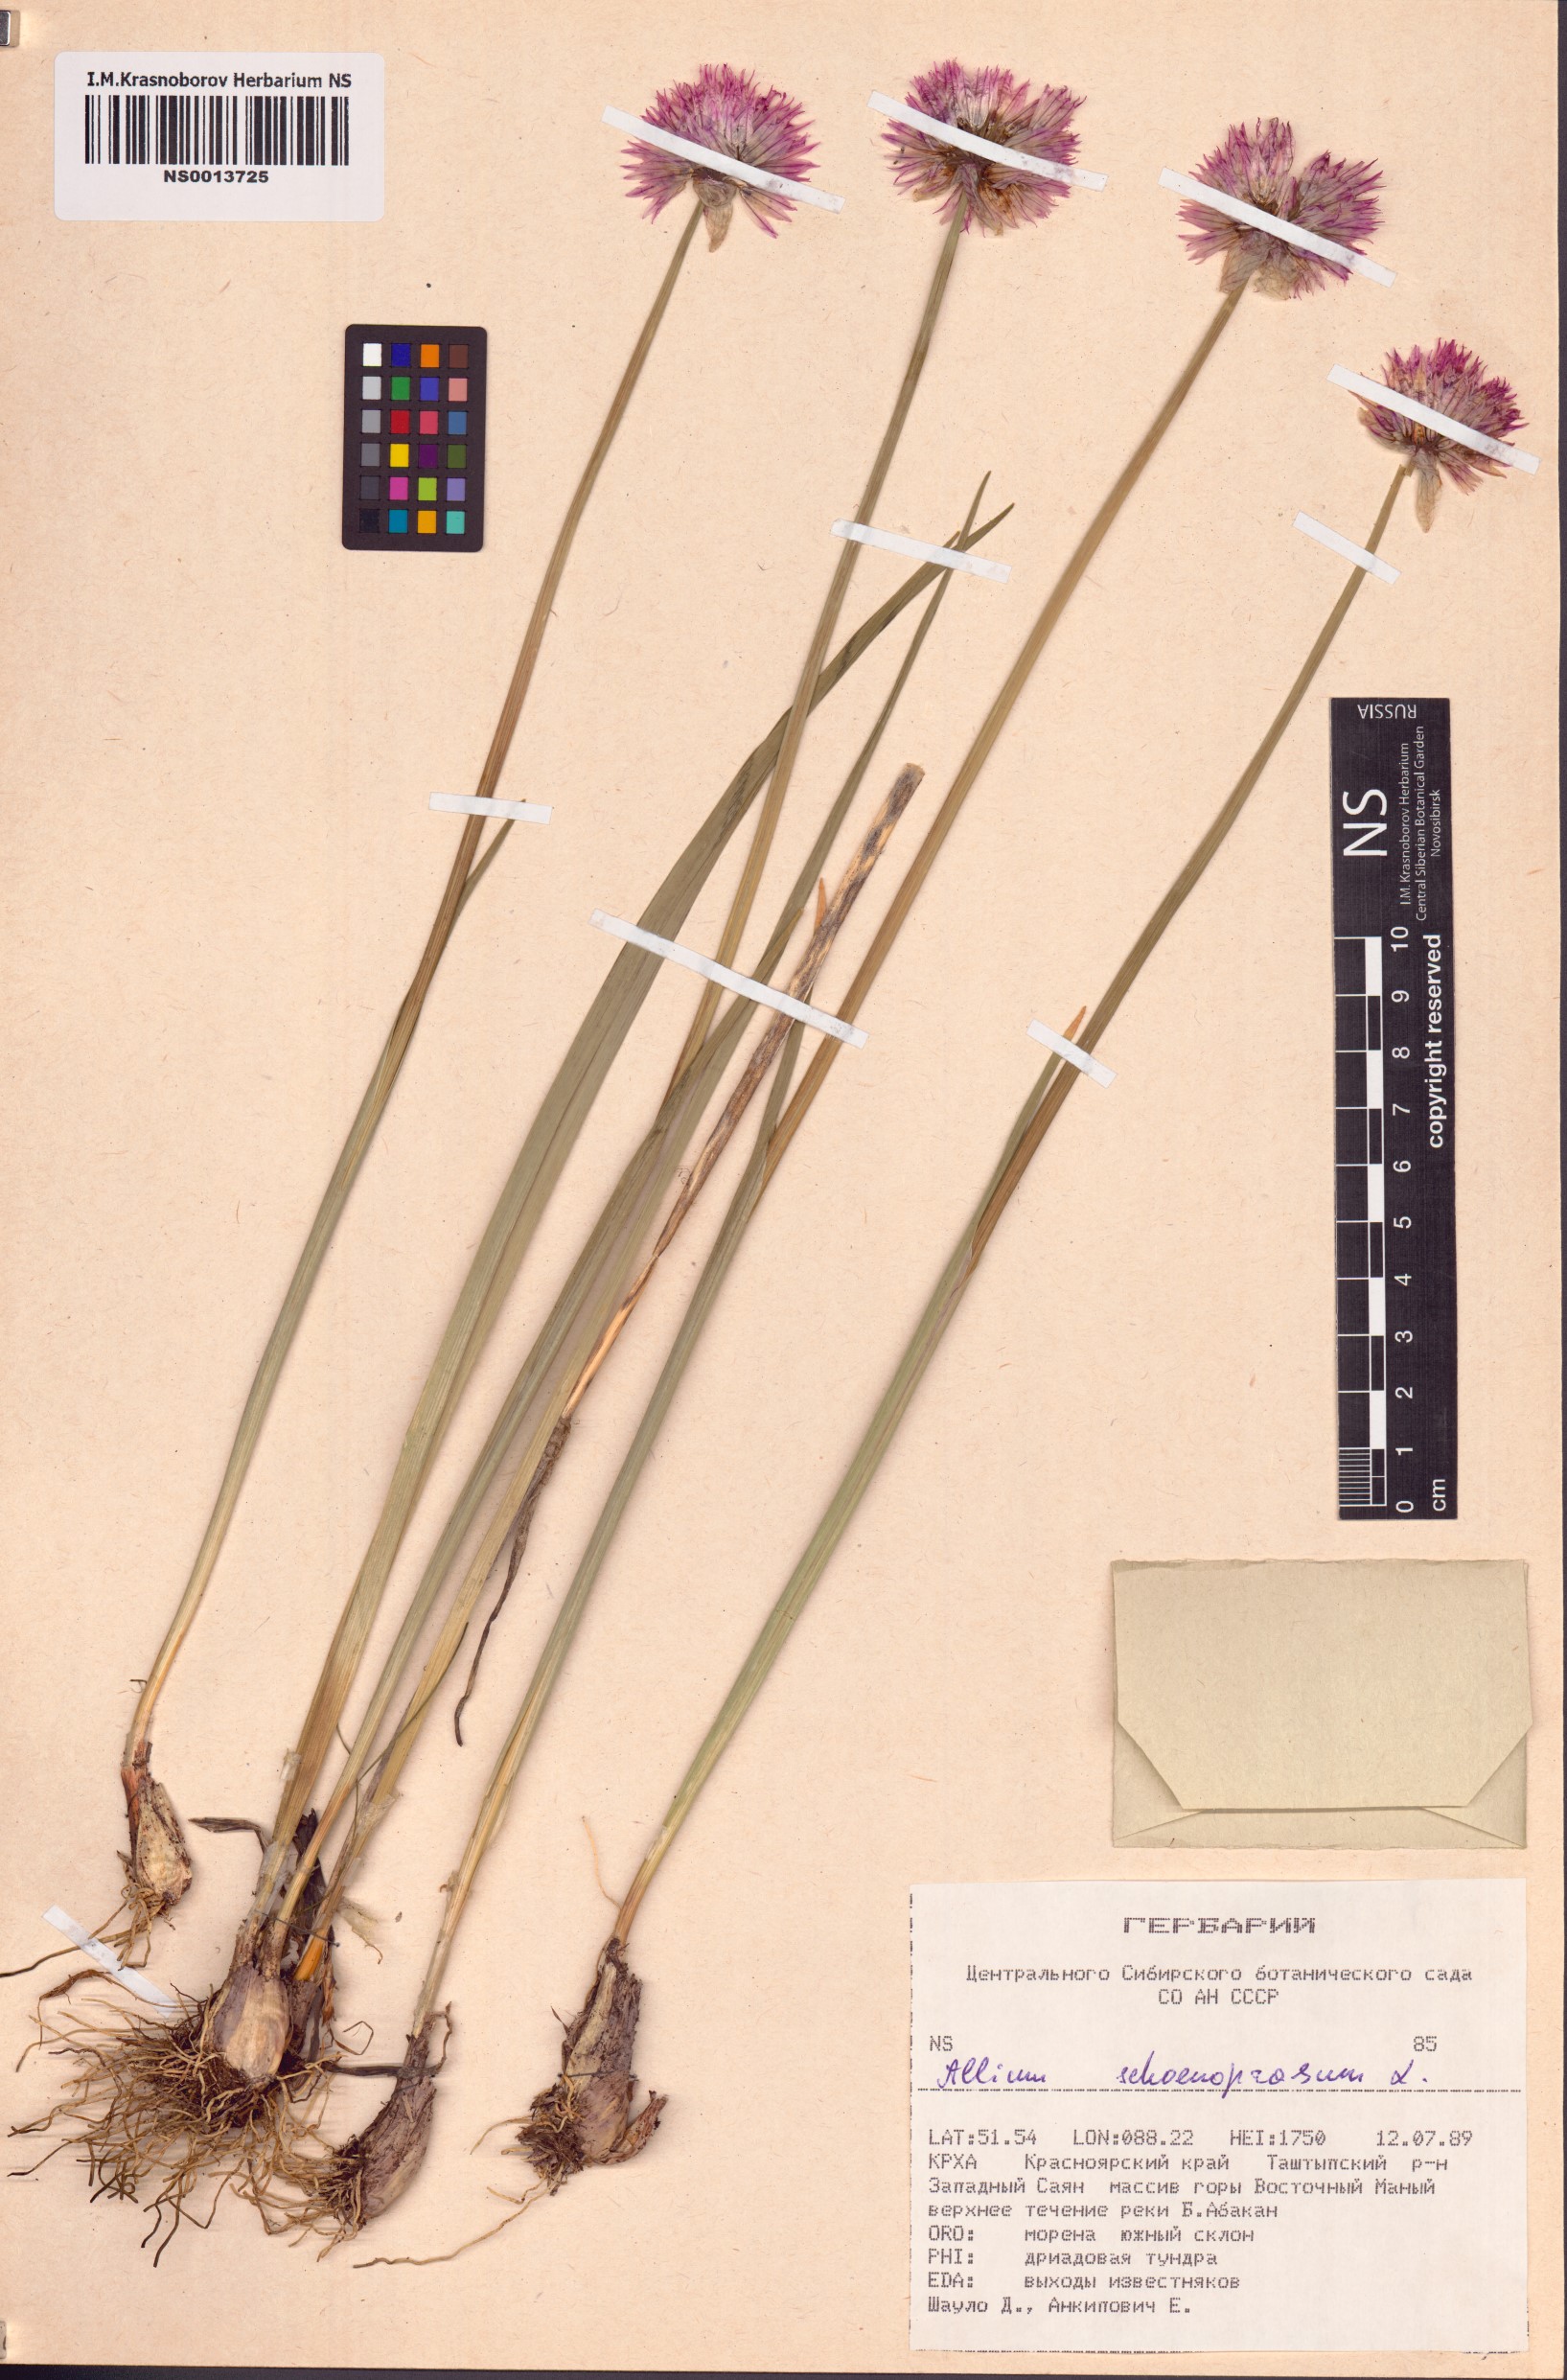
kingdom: Plantae
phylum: Tracheophyta
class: Liliopsida
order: Asparagales
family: Amaryllidaceae
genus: Allium
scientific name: Allium schoenoprasum
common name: Chives
